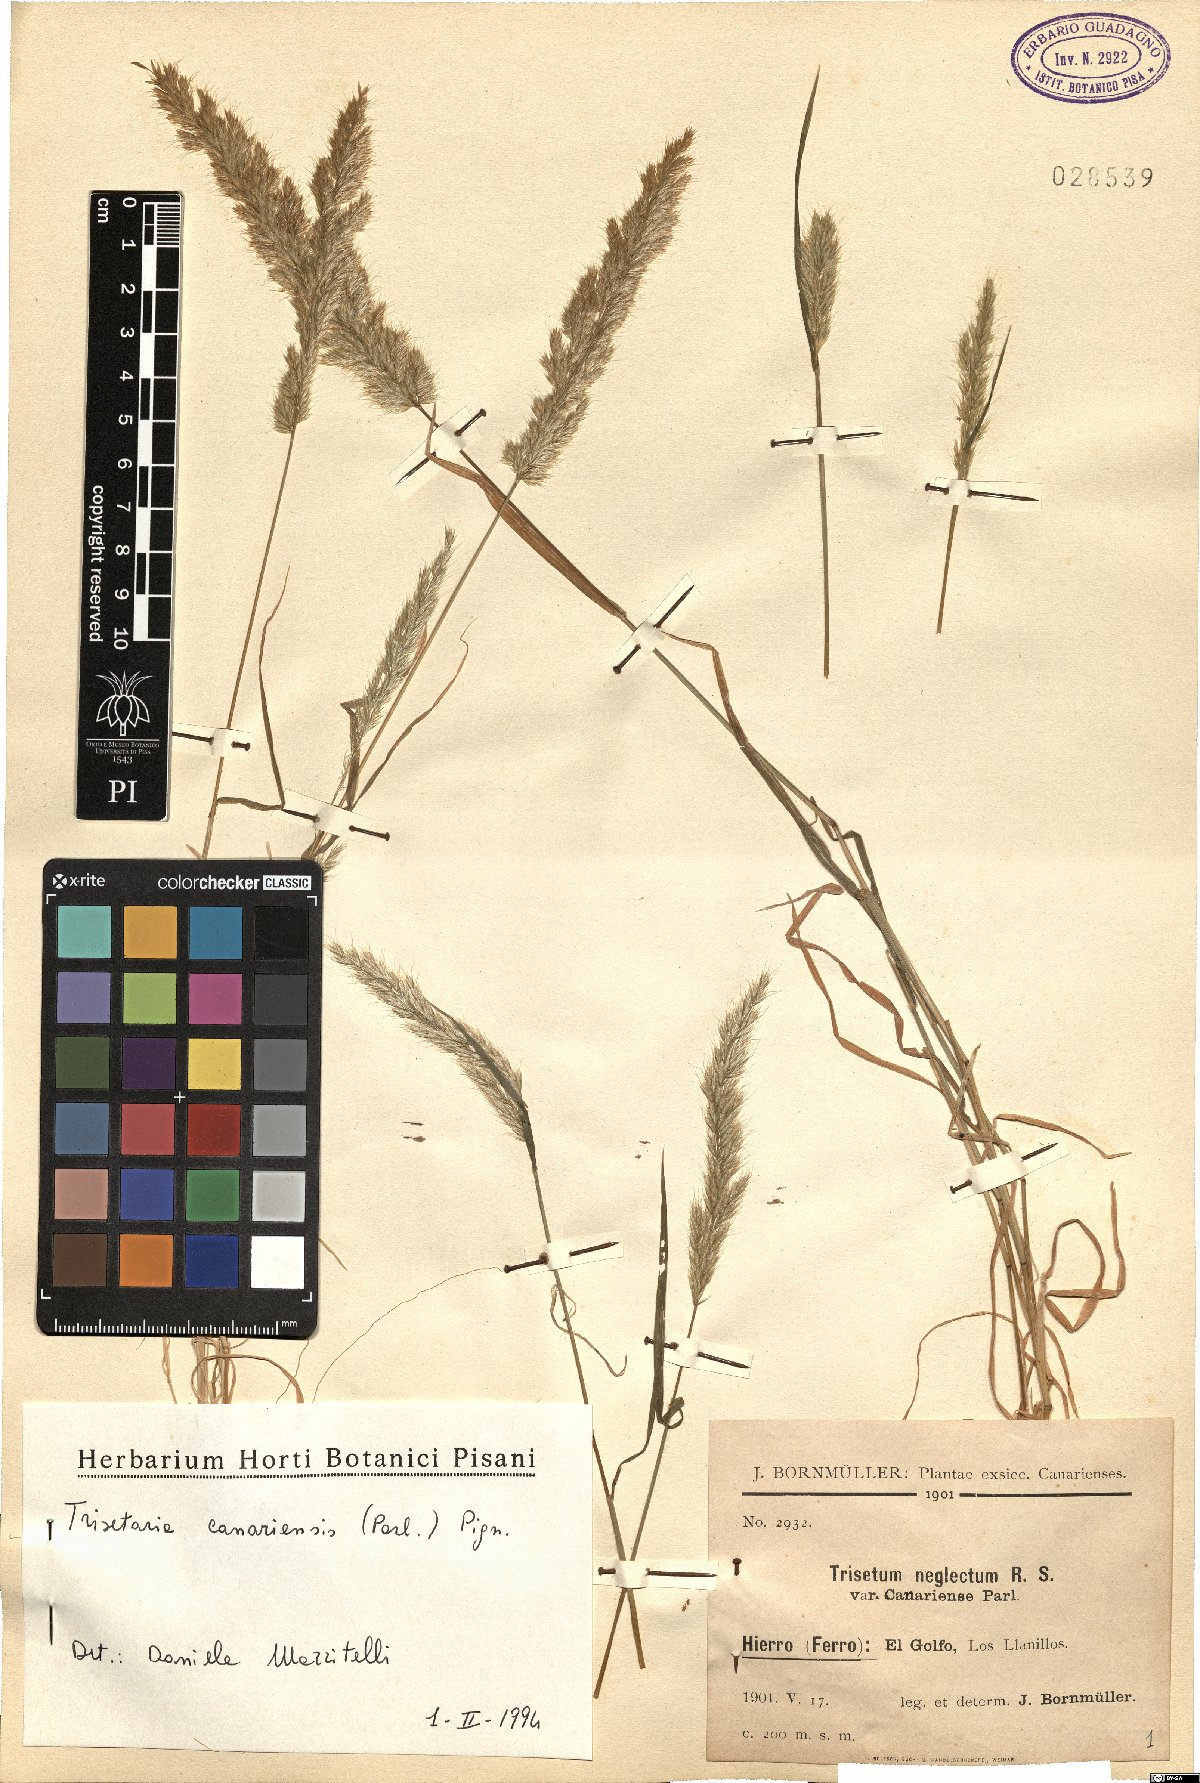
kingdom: Plantae
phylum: Tracheophyta
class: Liliopsida
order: Poales
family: Poaceae
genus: Trisetaria
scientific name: Trisetaria panicea
